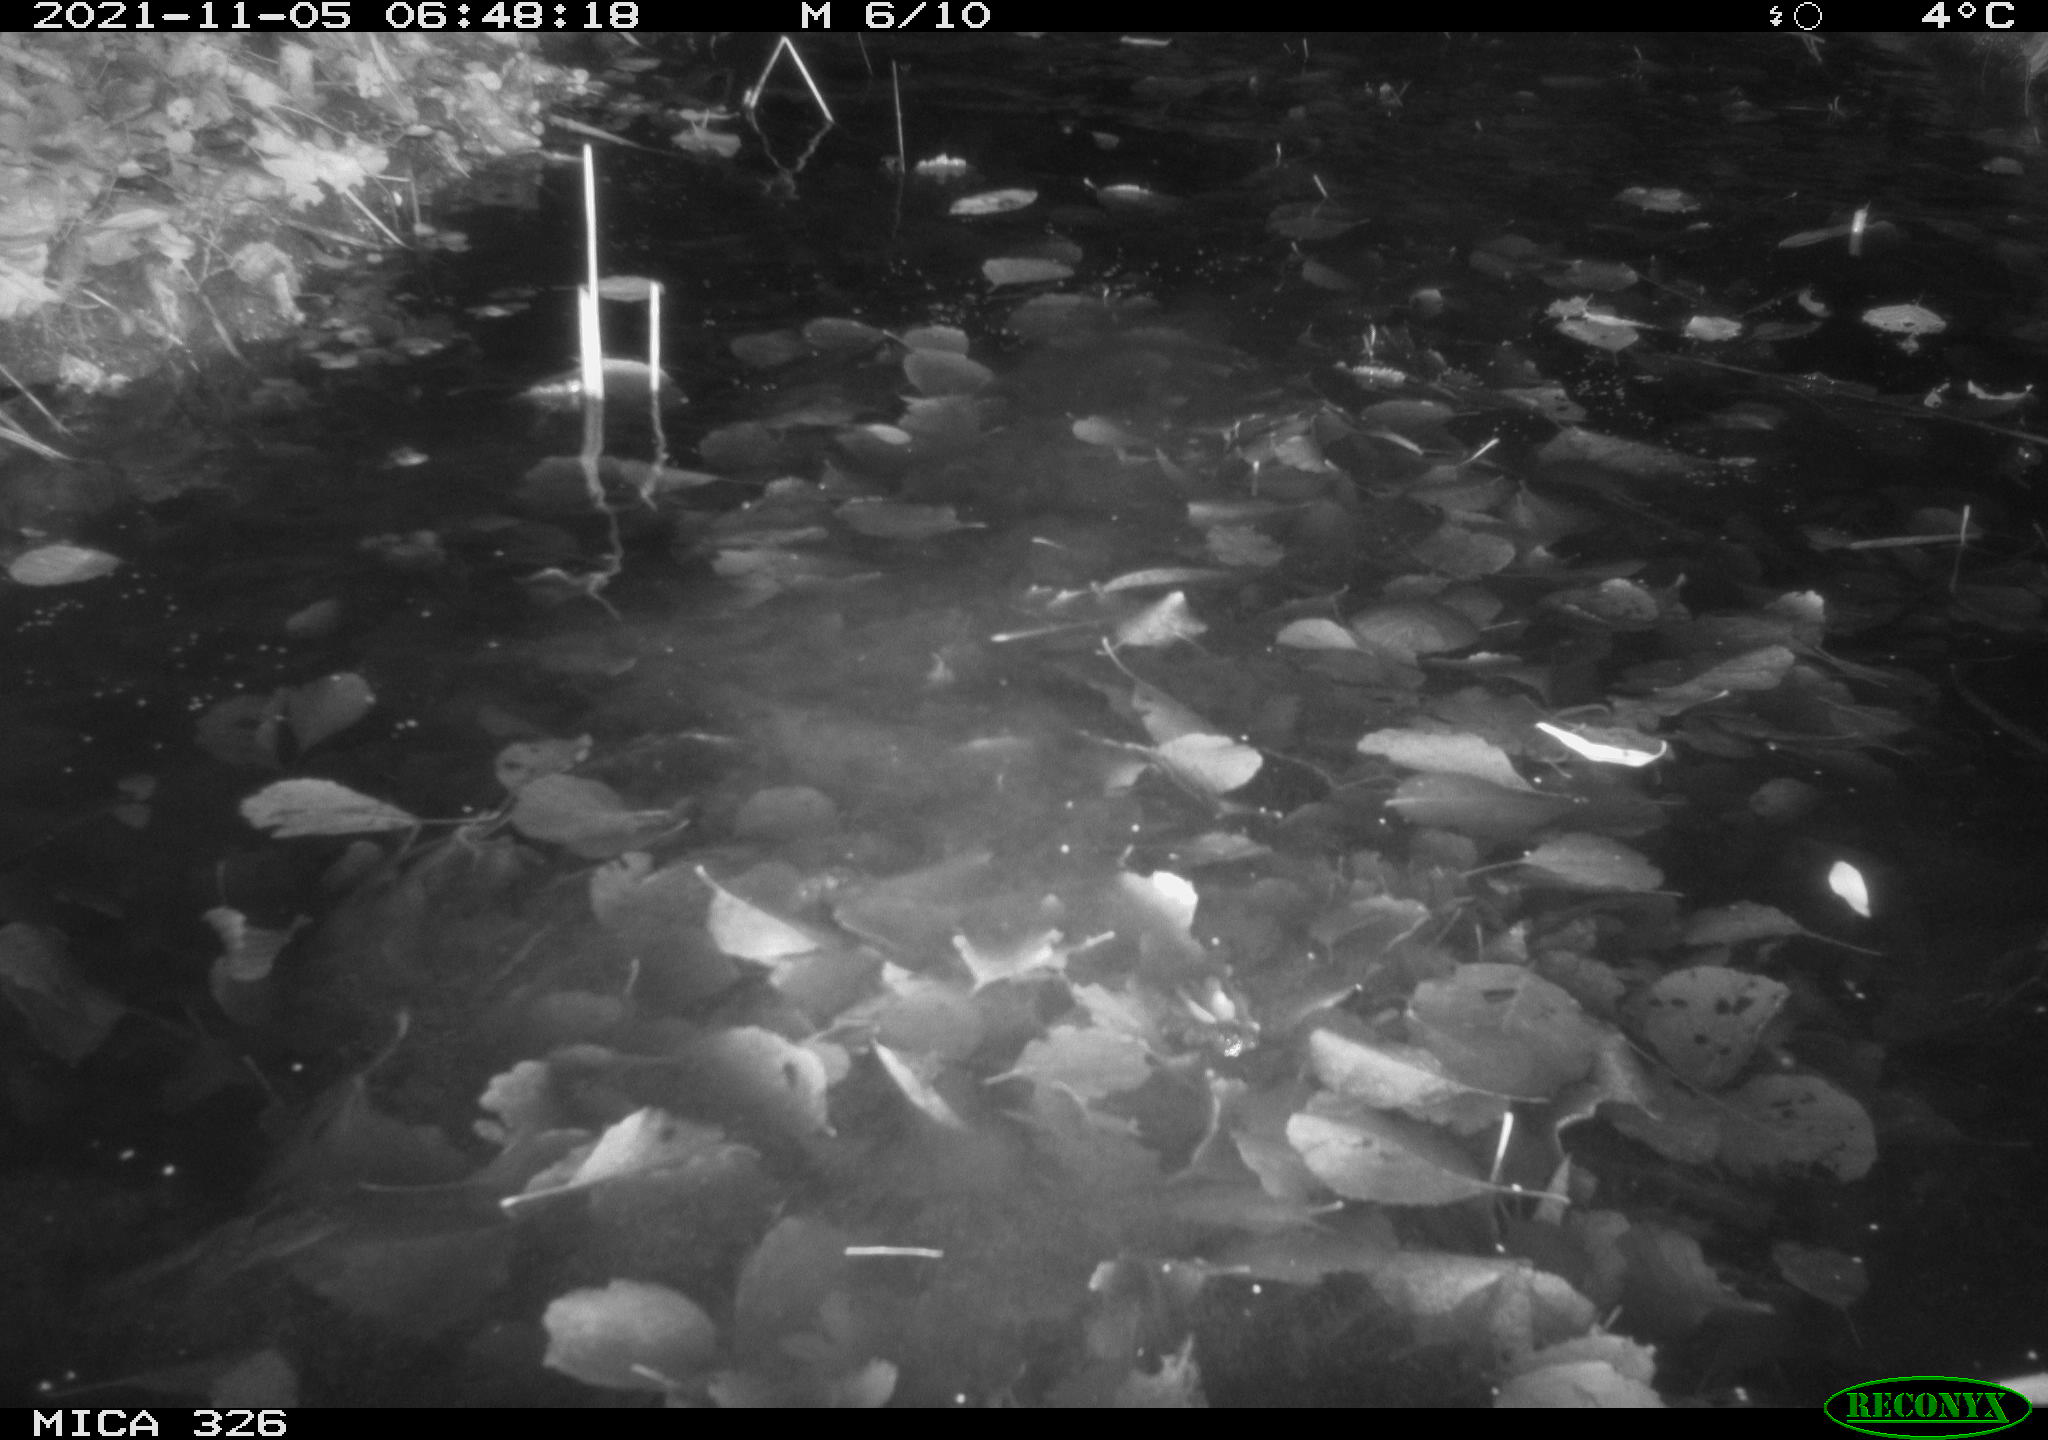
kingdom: Animalia
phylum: Chordata
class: Mammalia
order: Rodentia
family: Myocastoridae
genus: Myocastor
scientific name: Myocastor coypus
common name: Coypu
